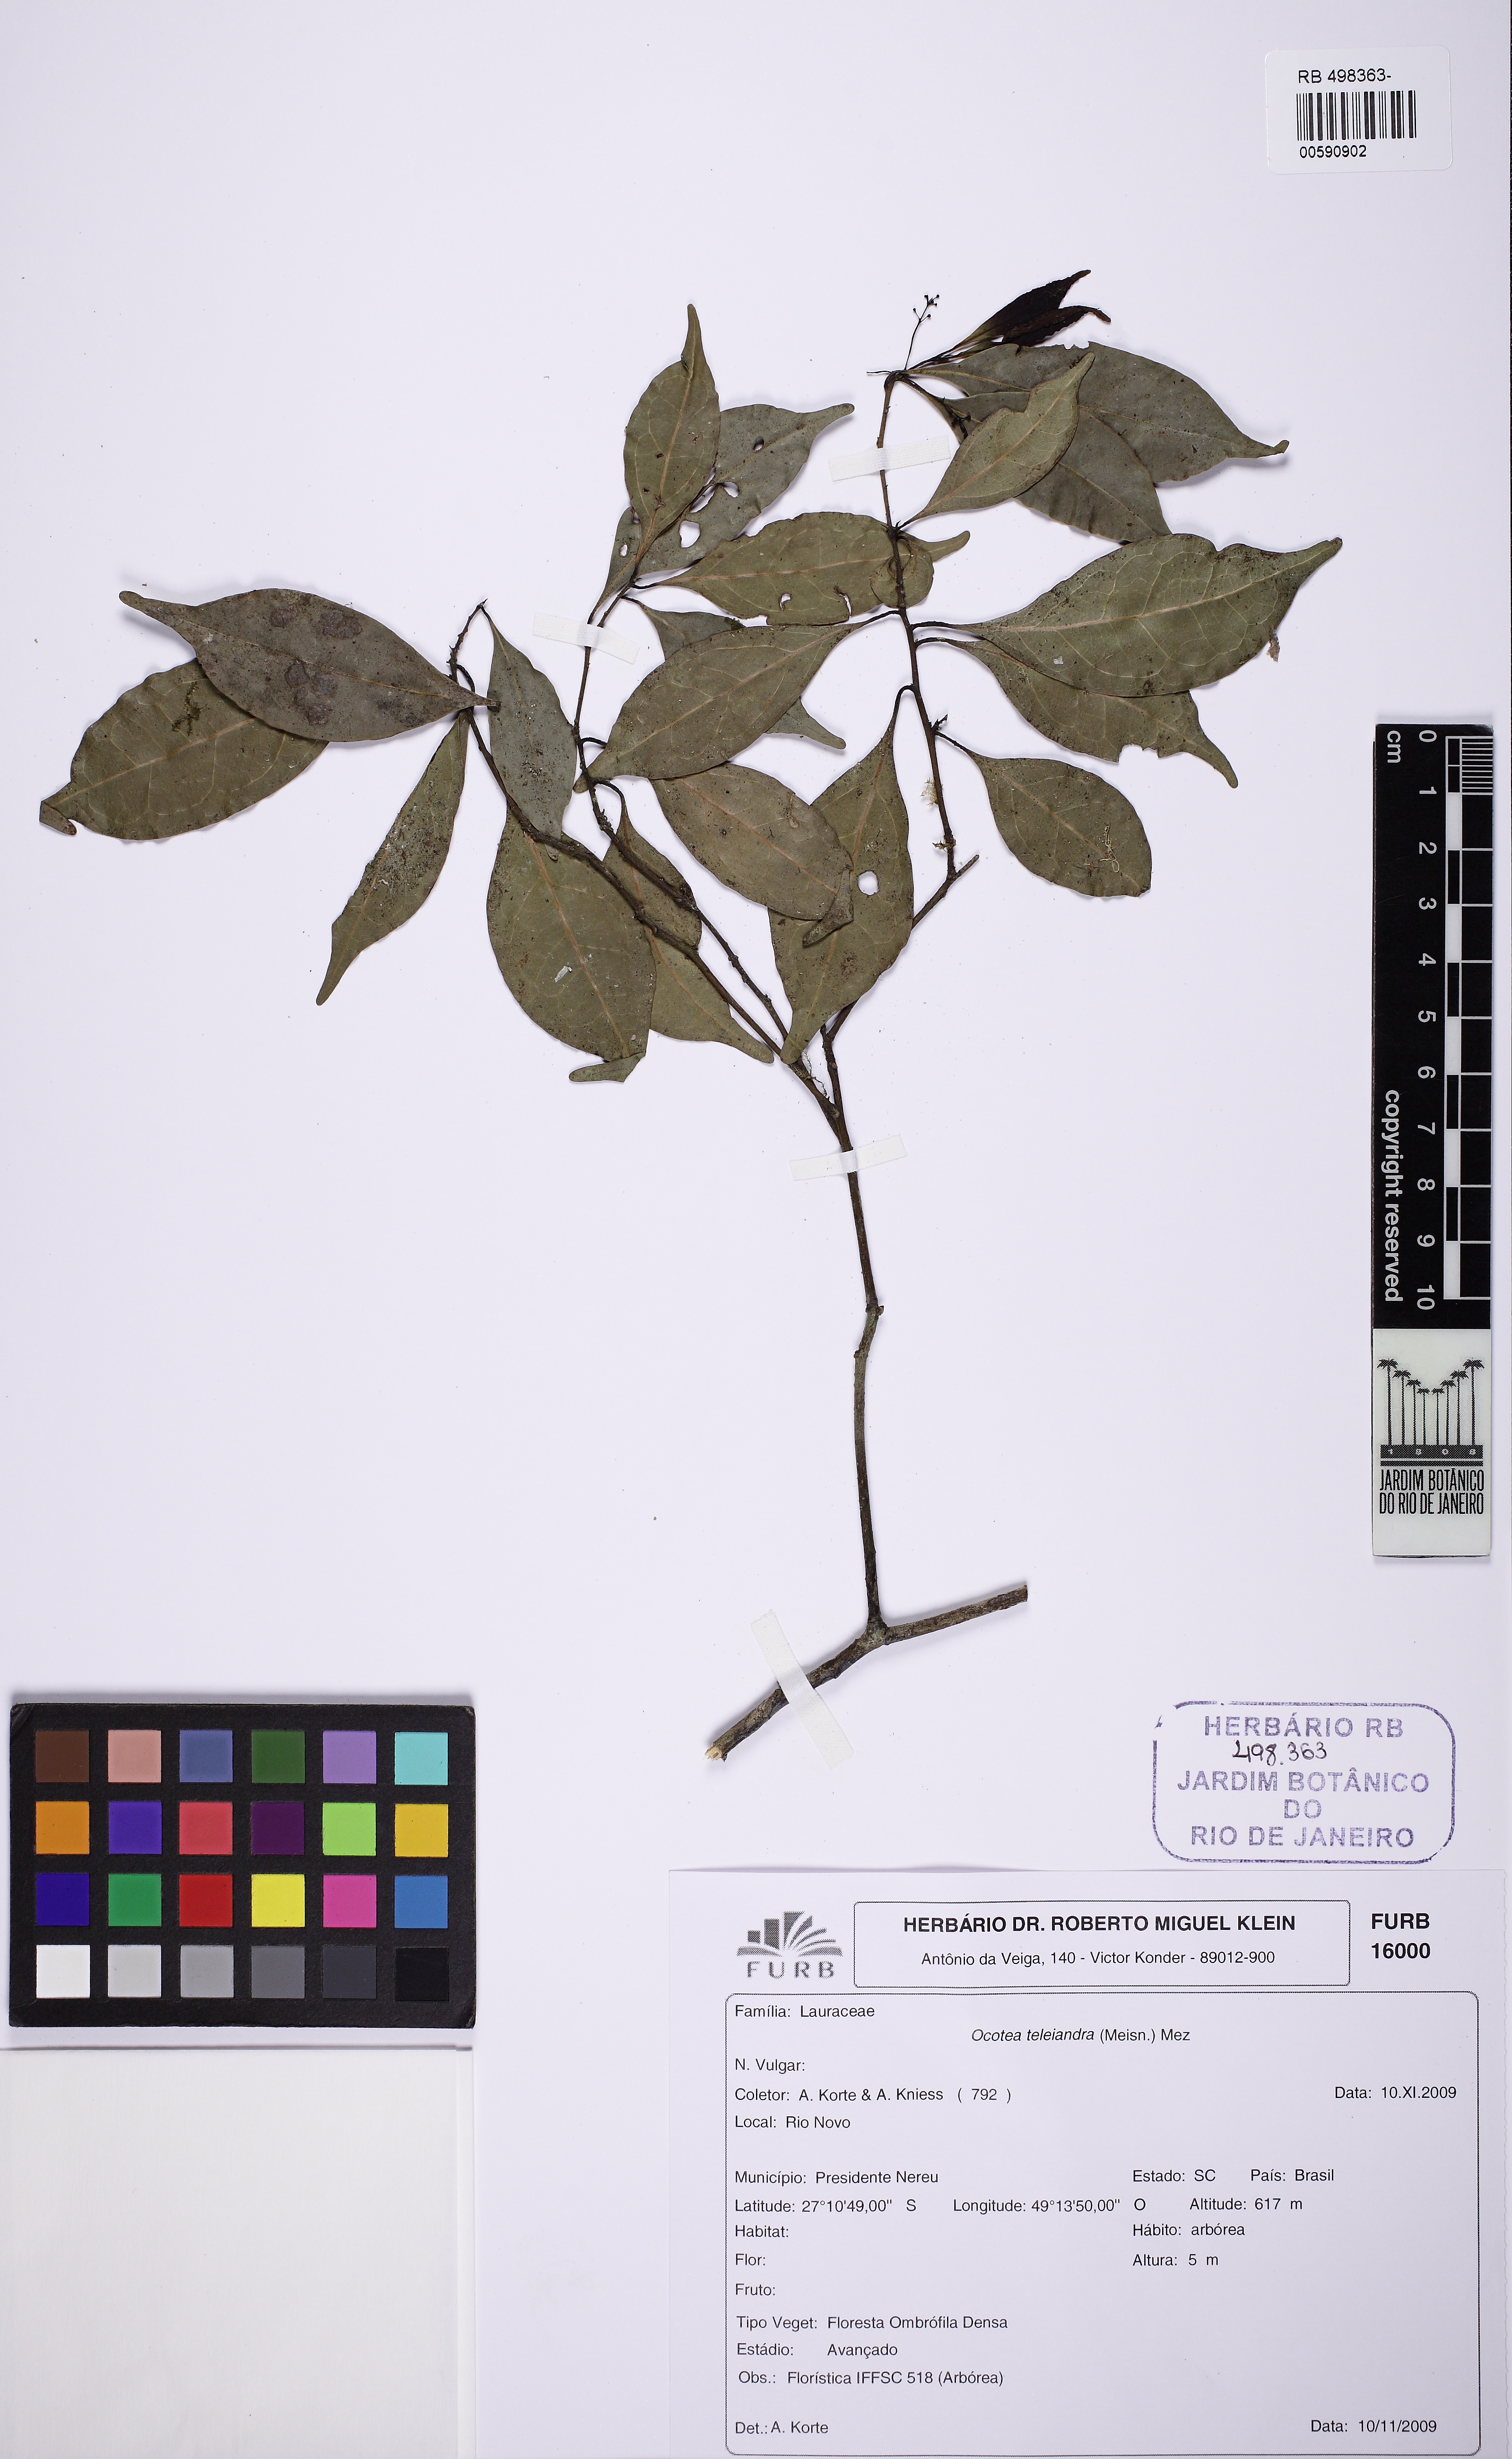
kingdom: Plantae
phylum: Tracheophyta
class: Magnoliopsida
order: Laurales
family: Lauraceae
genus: Ocotea
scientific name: Ocotea teleiandra
